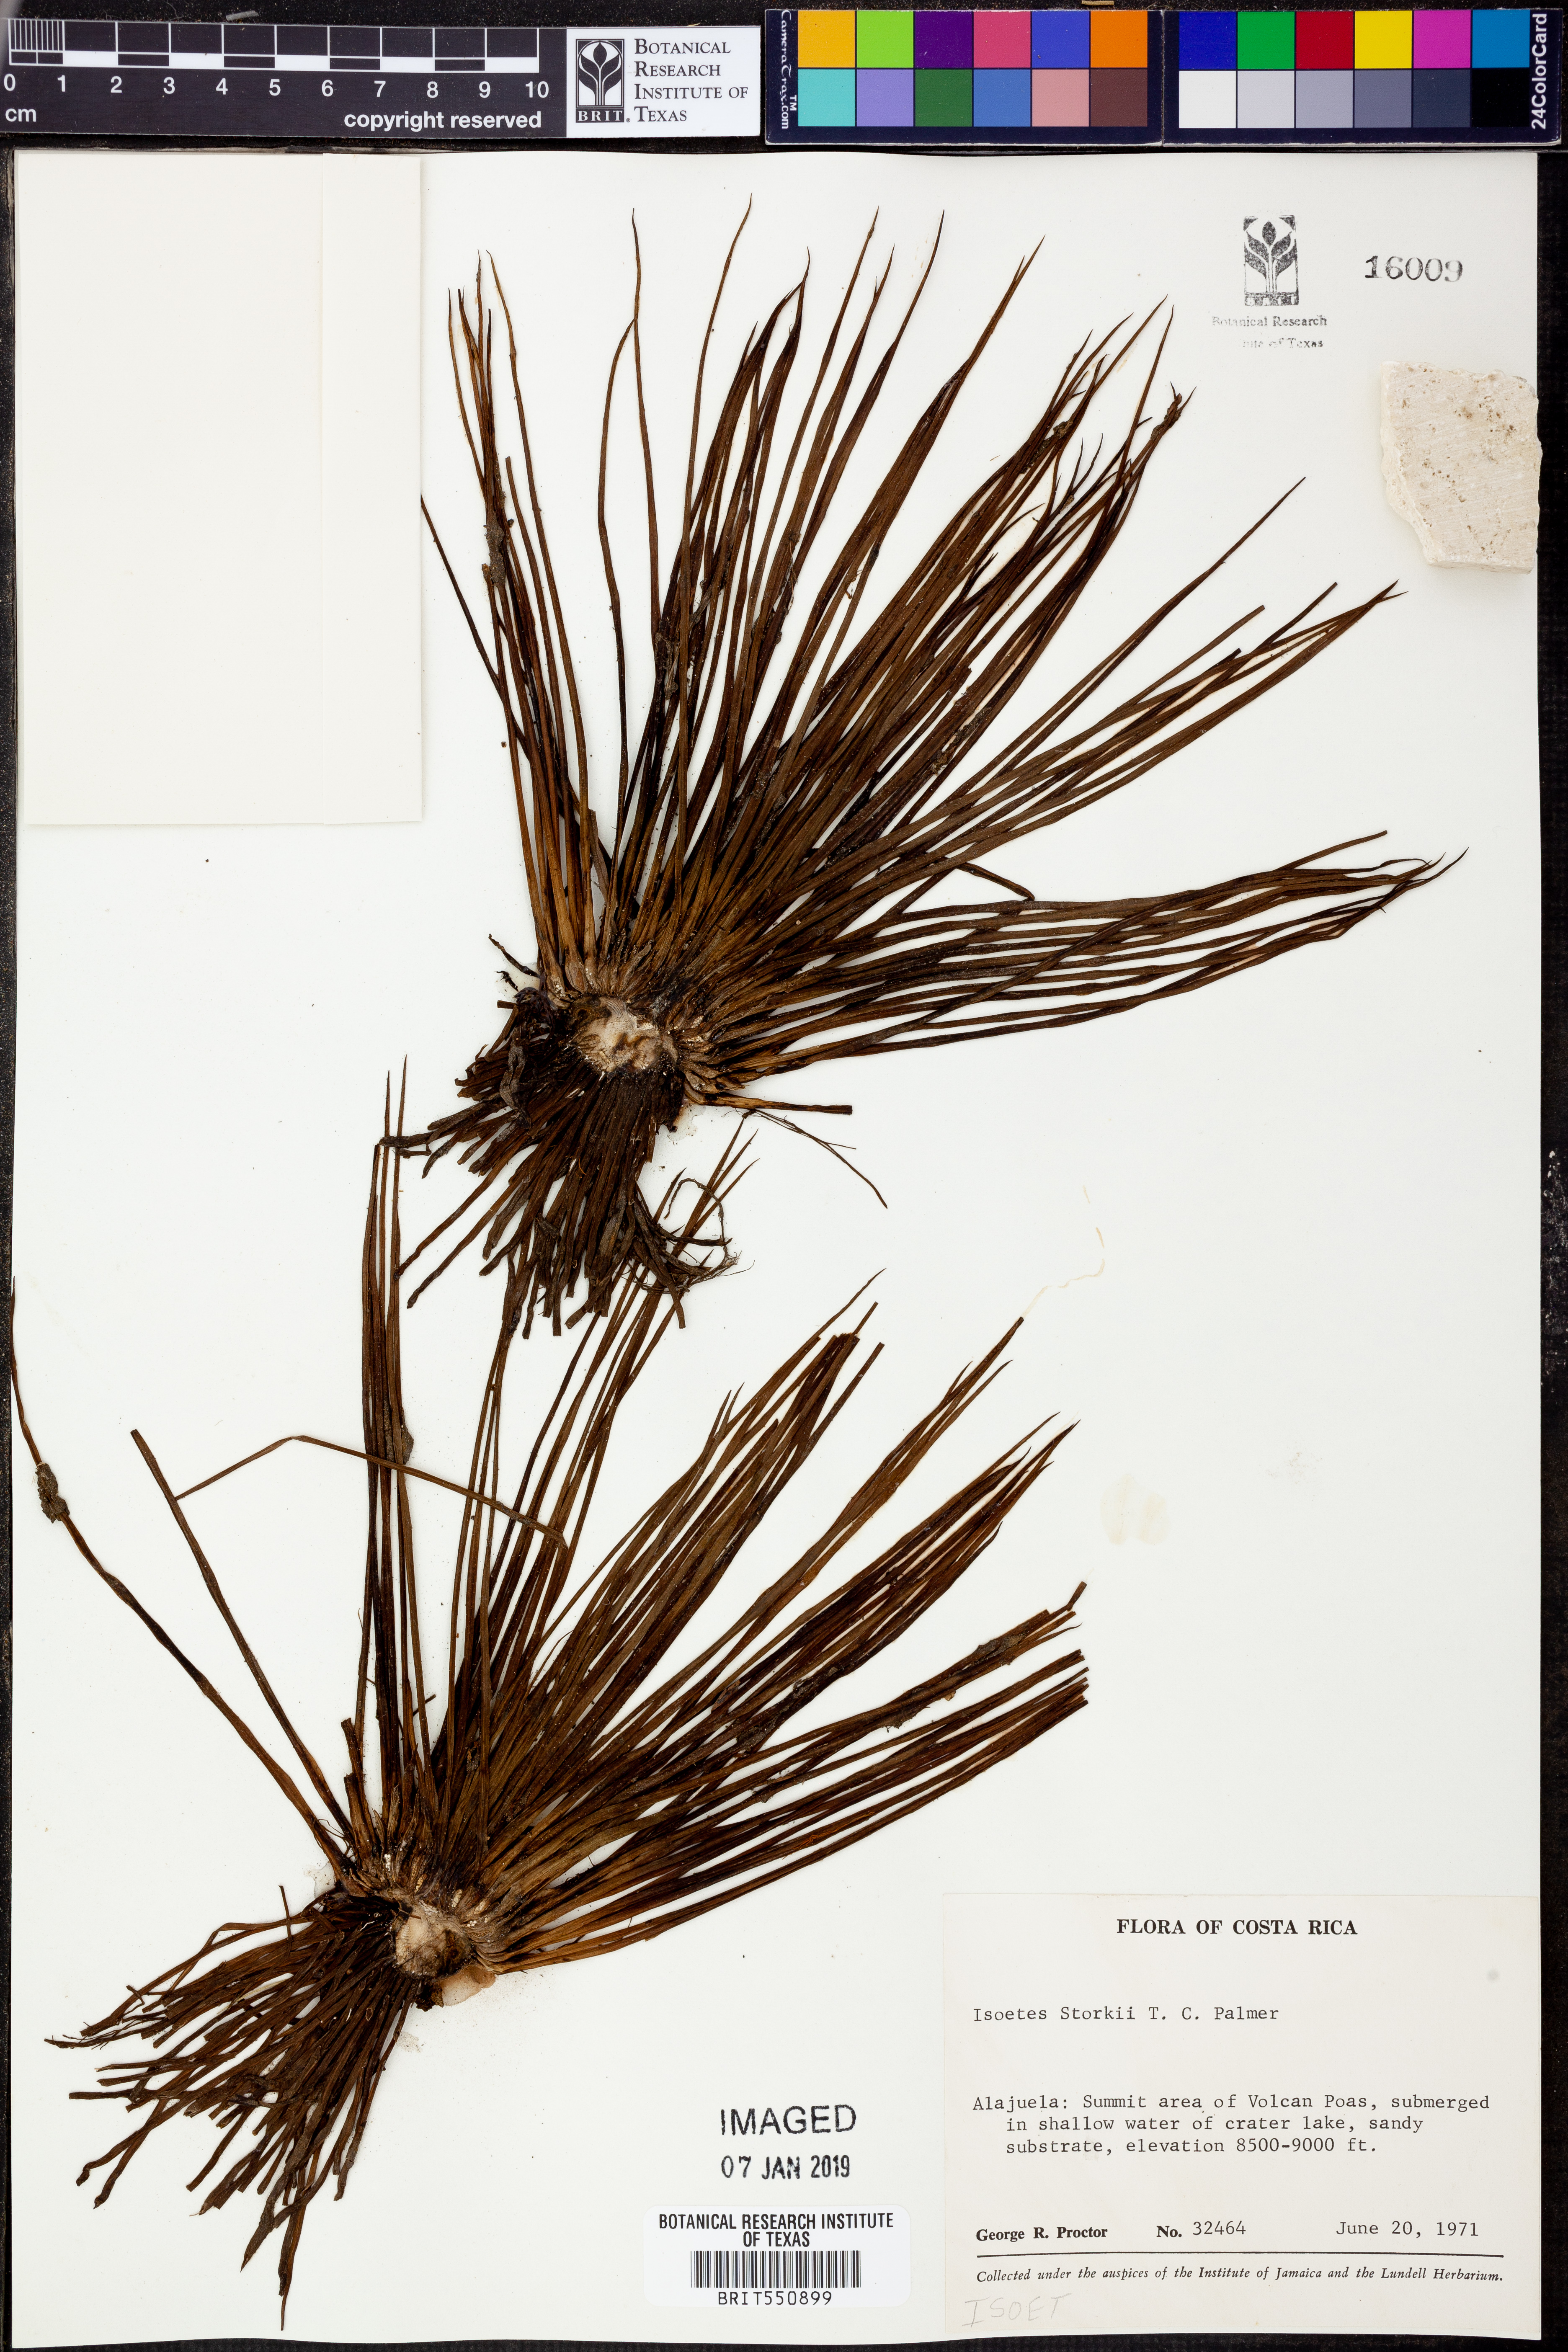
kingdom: Plantae
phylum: Tracheophyta
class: Lycopodiopsida
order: Isoetales
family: Isoetaceae
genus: Isoetes
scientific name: Isoetes storkii
